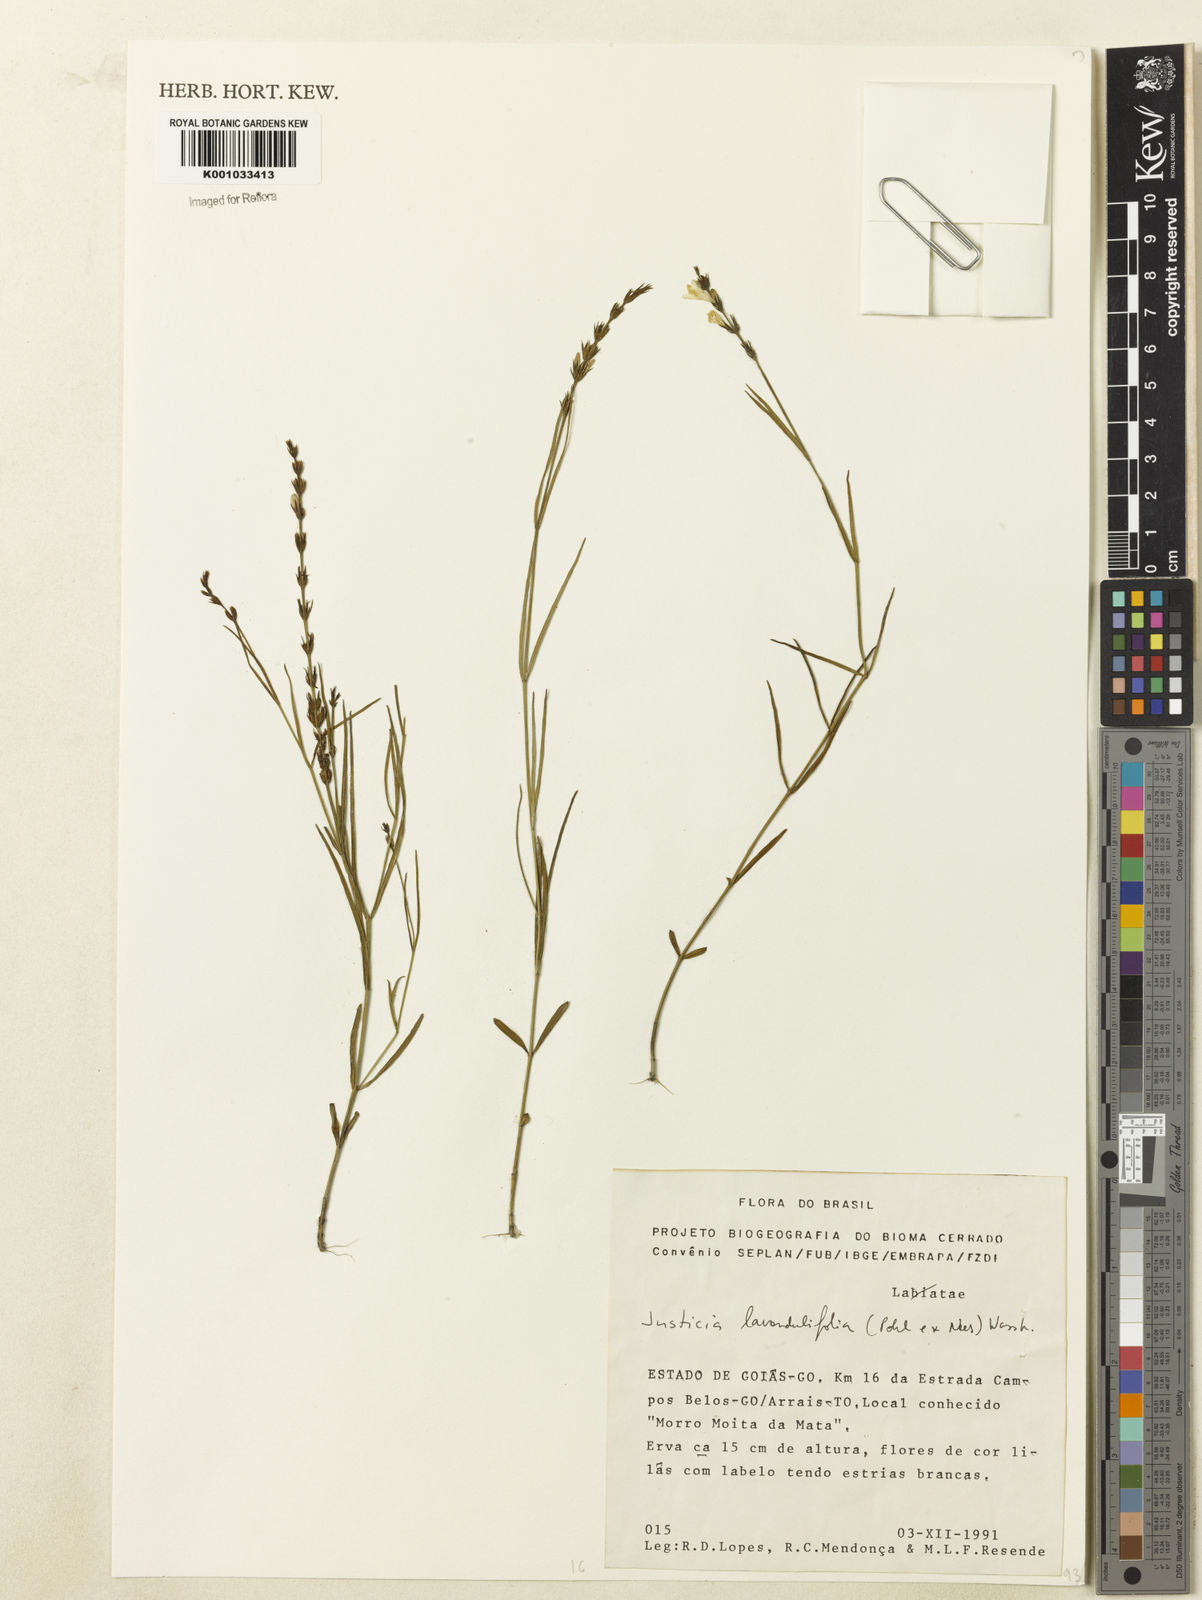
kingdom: Plantae
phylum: Tracheophyta
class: Magnoliopsida
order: Lamiales
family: Acanthaceae
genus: Justicia
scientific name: Justicia lavandulifolia
